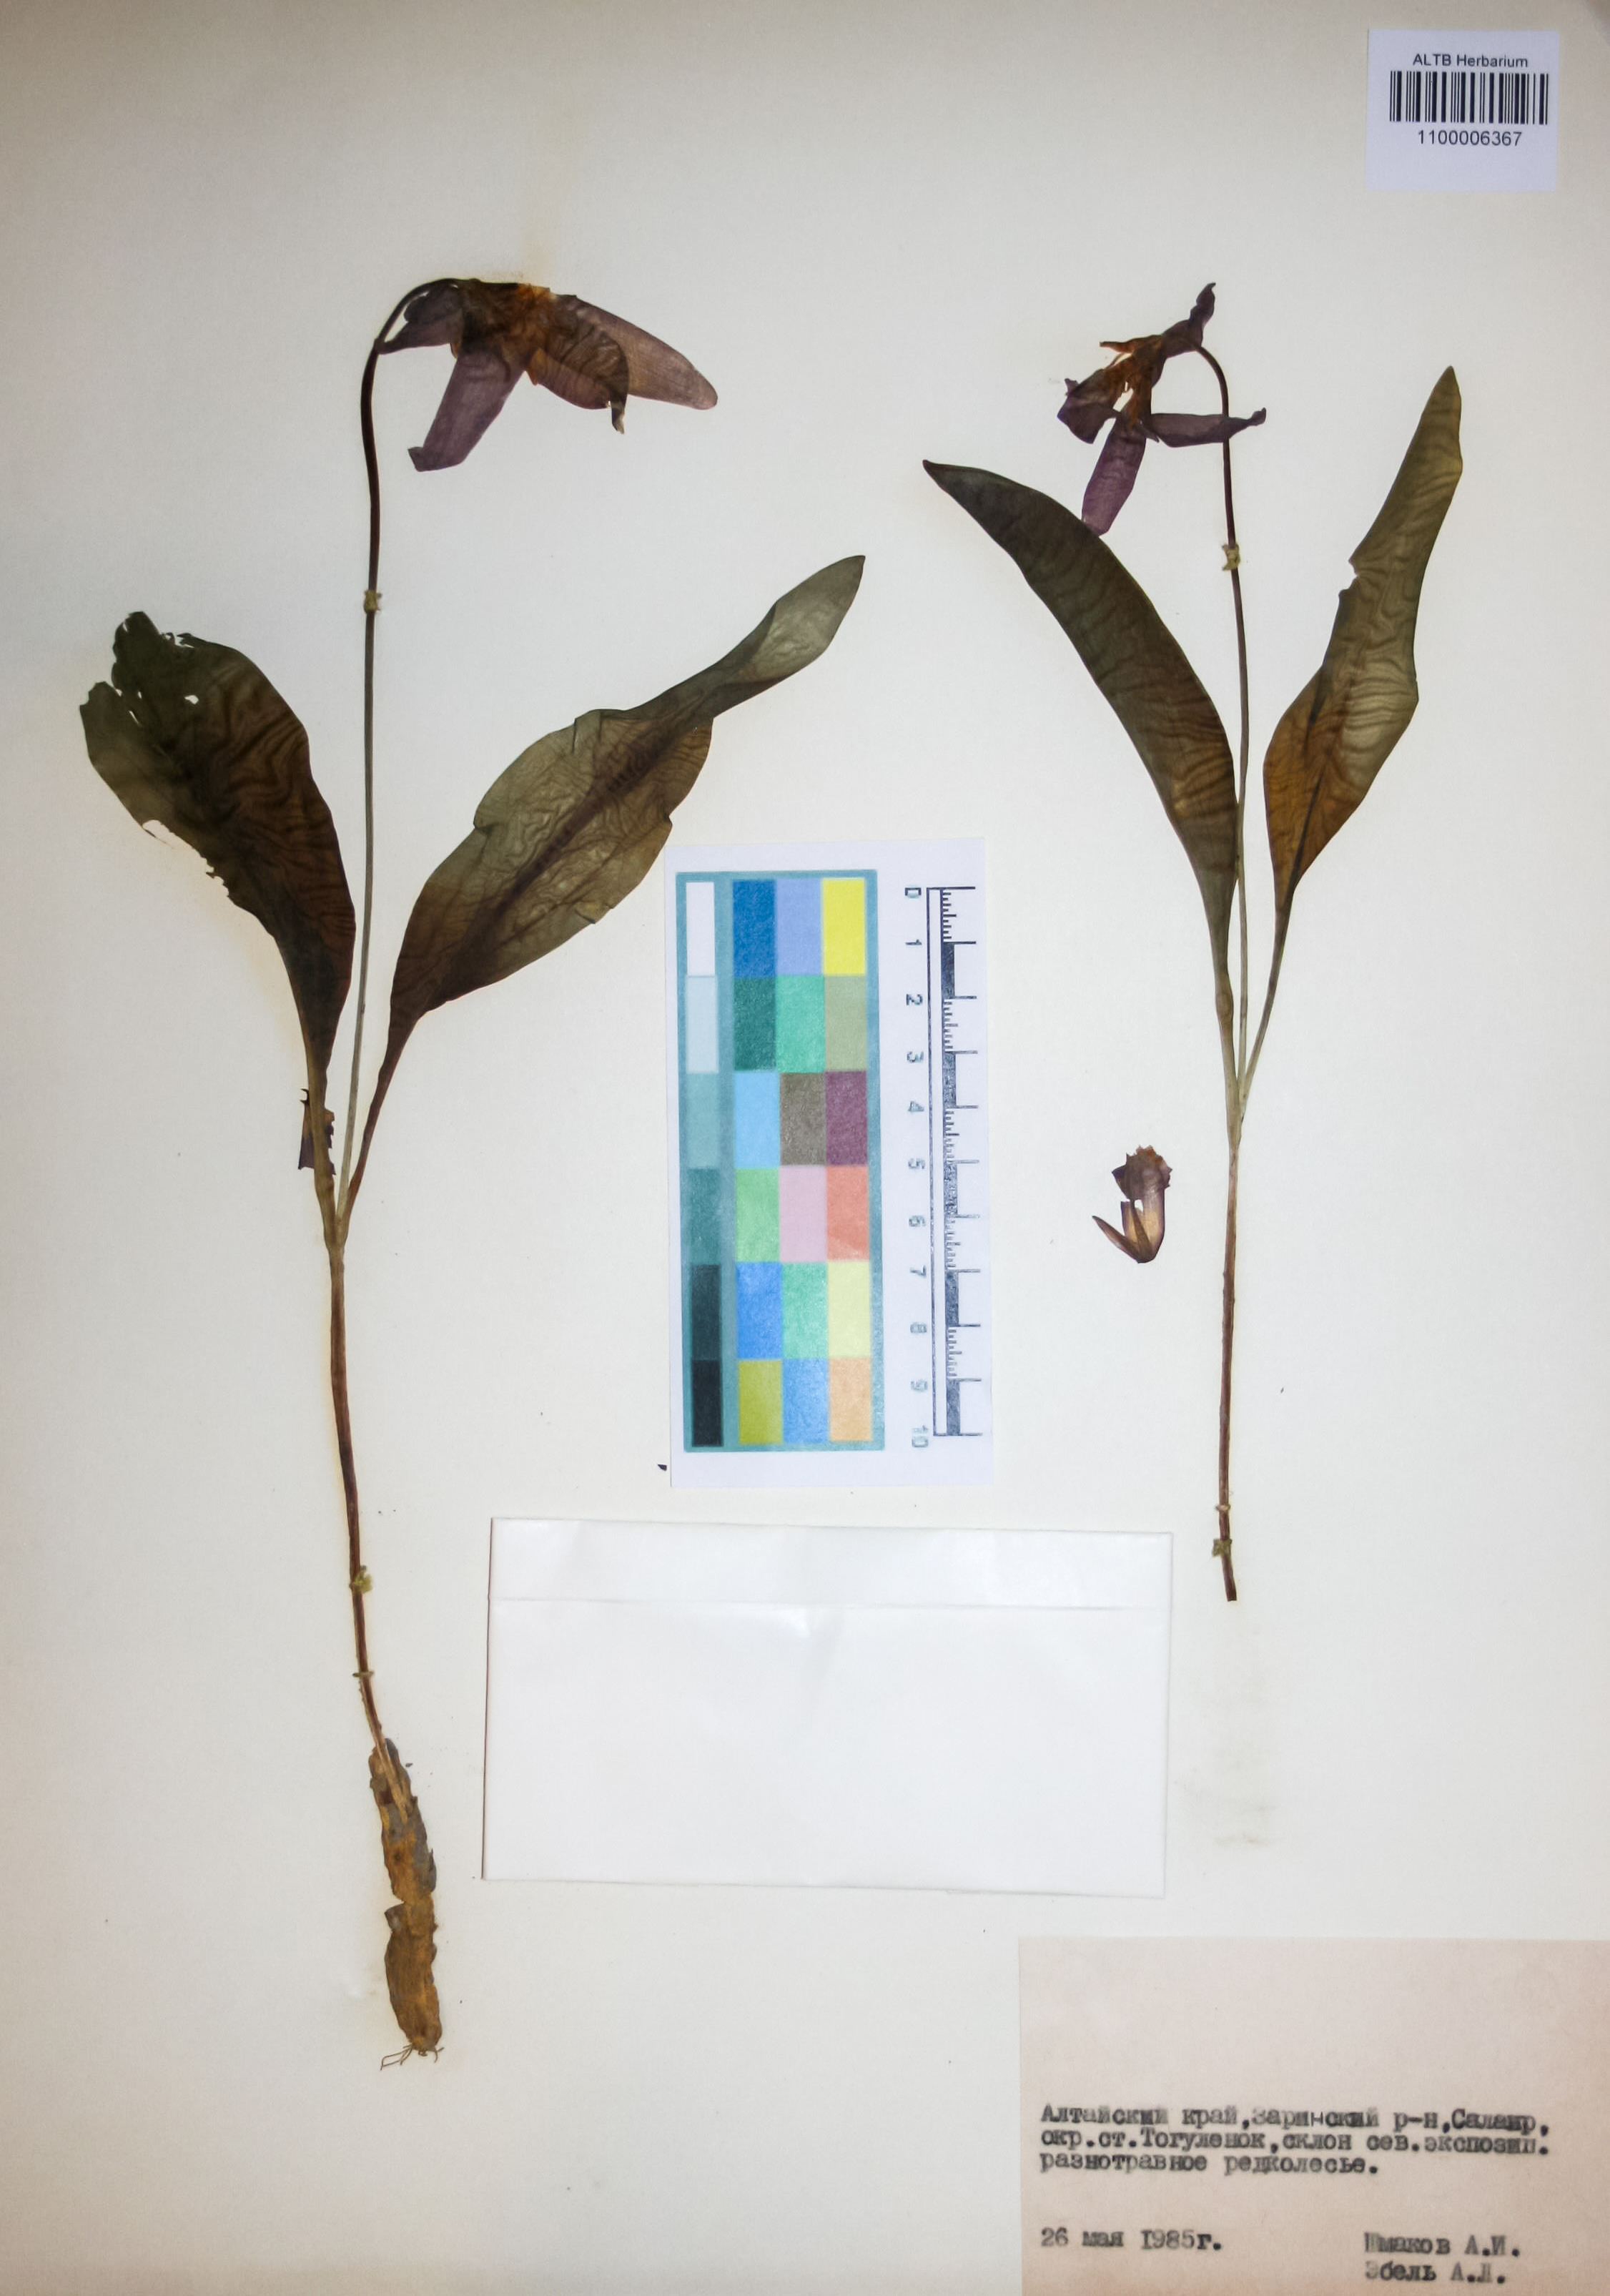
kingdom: Plantae
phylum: Tracheophyta
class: Liliopsida
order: Liliales
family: Liliaceae
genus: Erythronium
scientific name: Erythronium sibiricum
